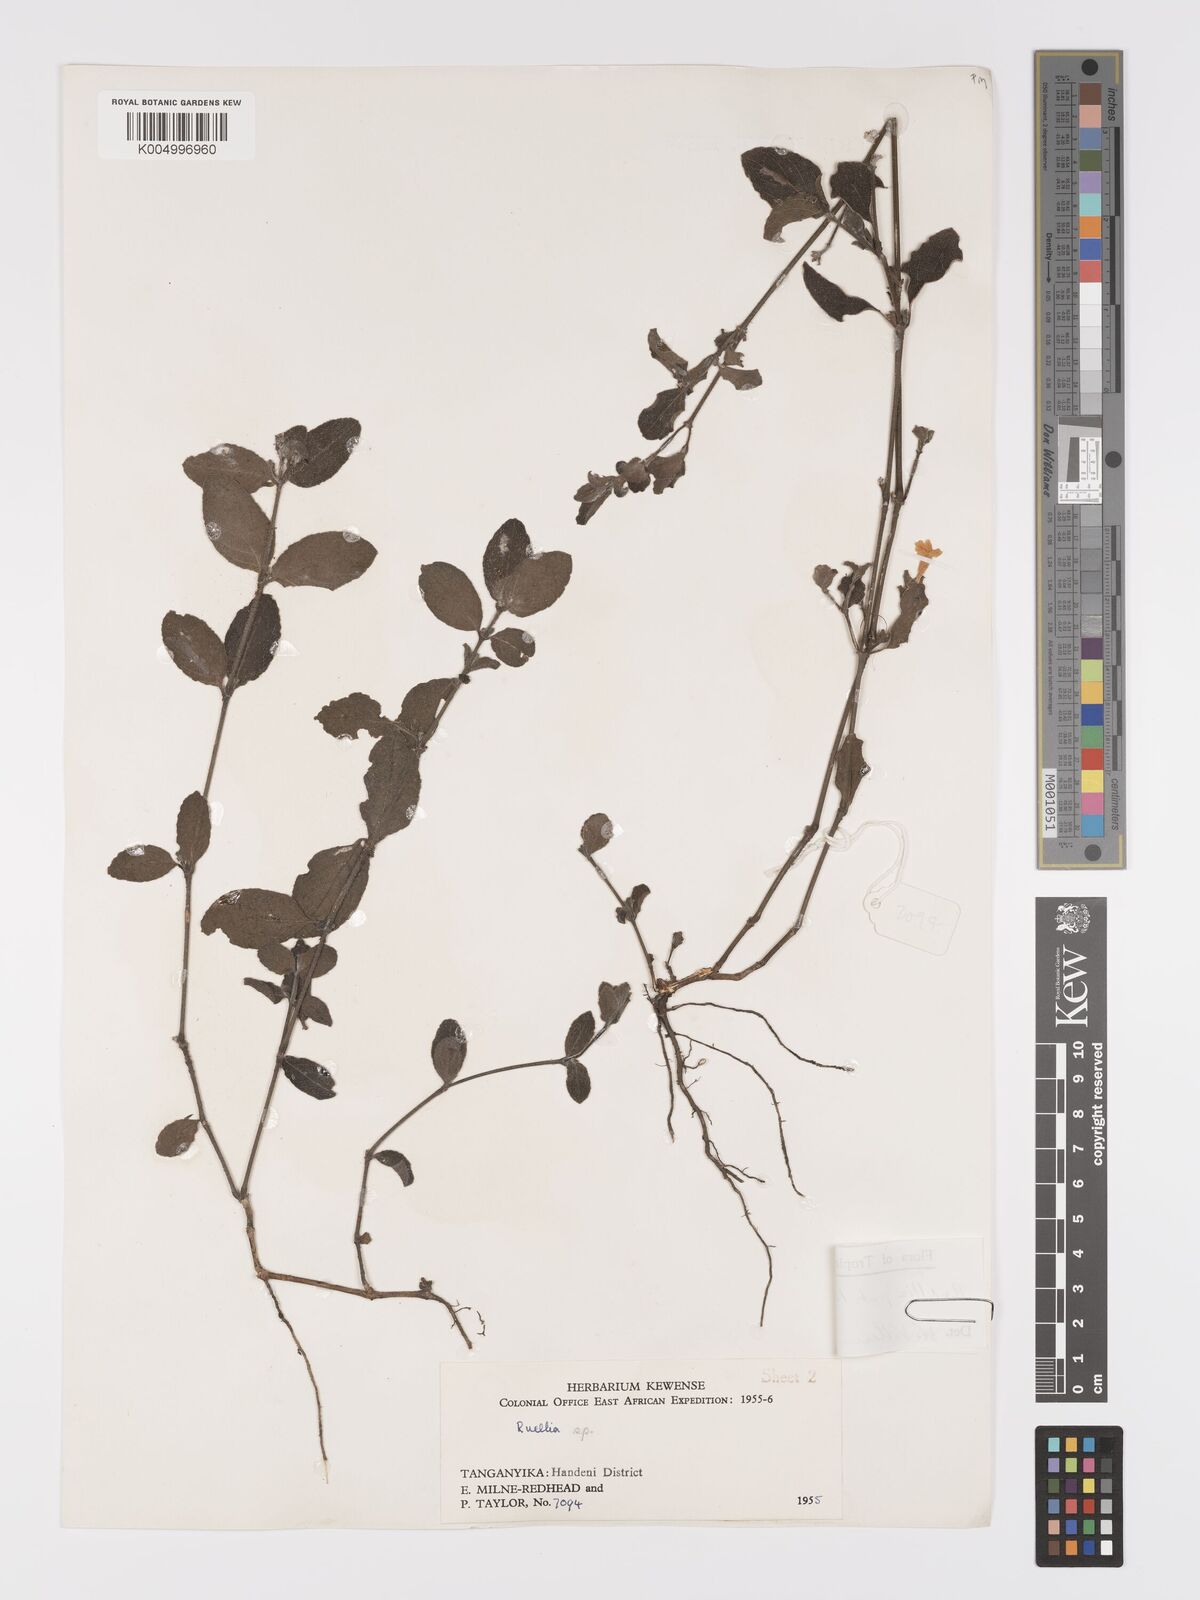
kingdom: Plantae
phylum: Tracheophyta
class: Magnoliopsida
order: Lamiales
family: Acanthaceae
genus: Ruellia
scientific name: Ruellia patula
